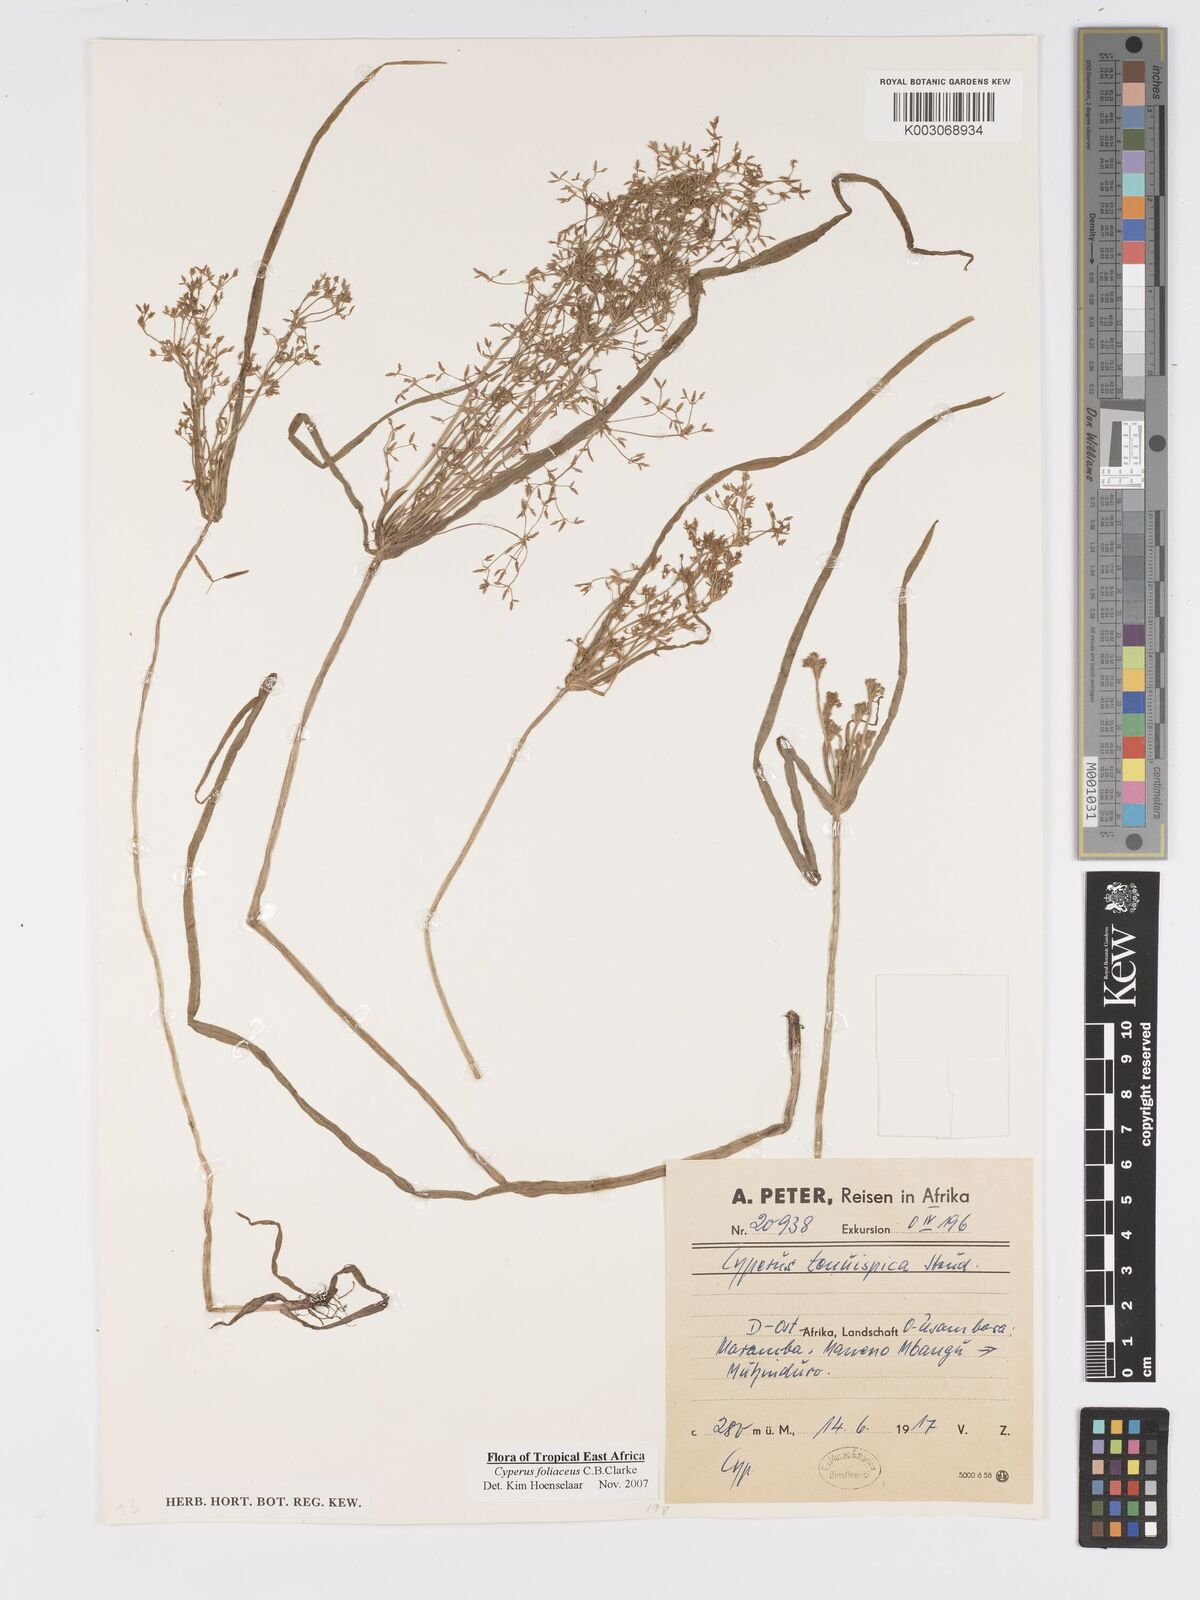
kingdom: Plantae
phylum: Tracheophyta
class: Liliopsida
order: Poales
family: Cyperaceae
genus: Cyperus
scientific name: Cyperus foliaceus
